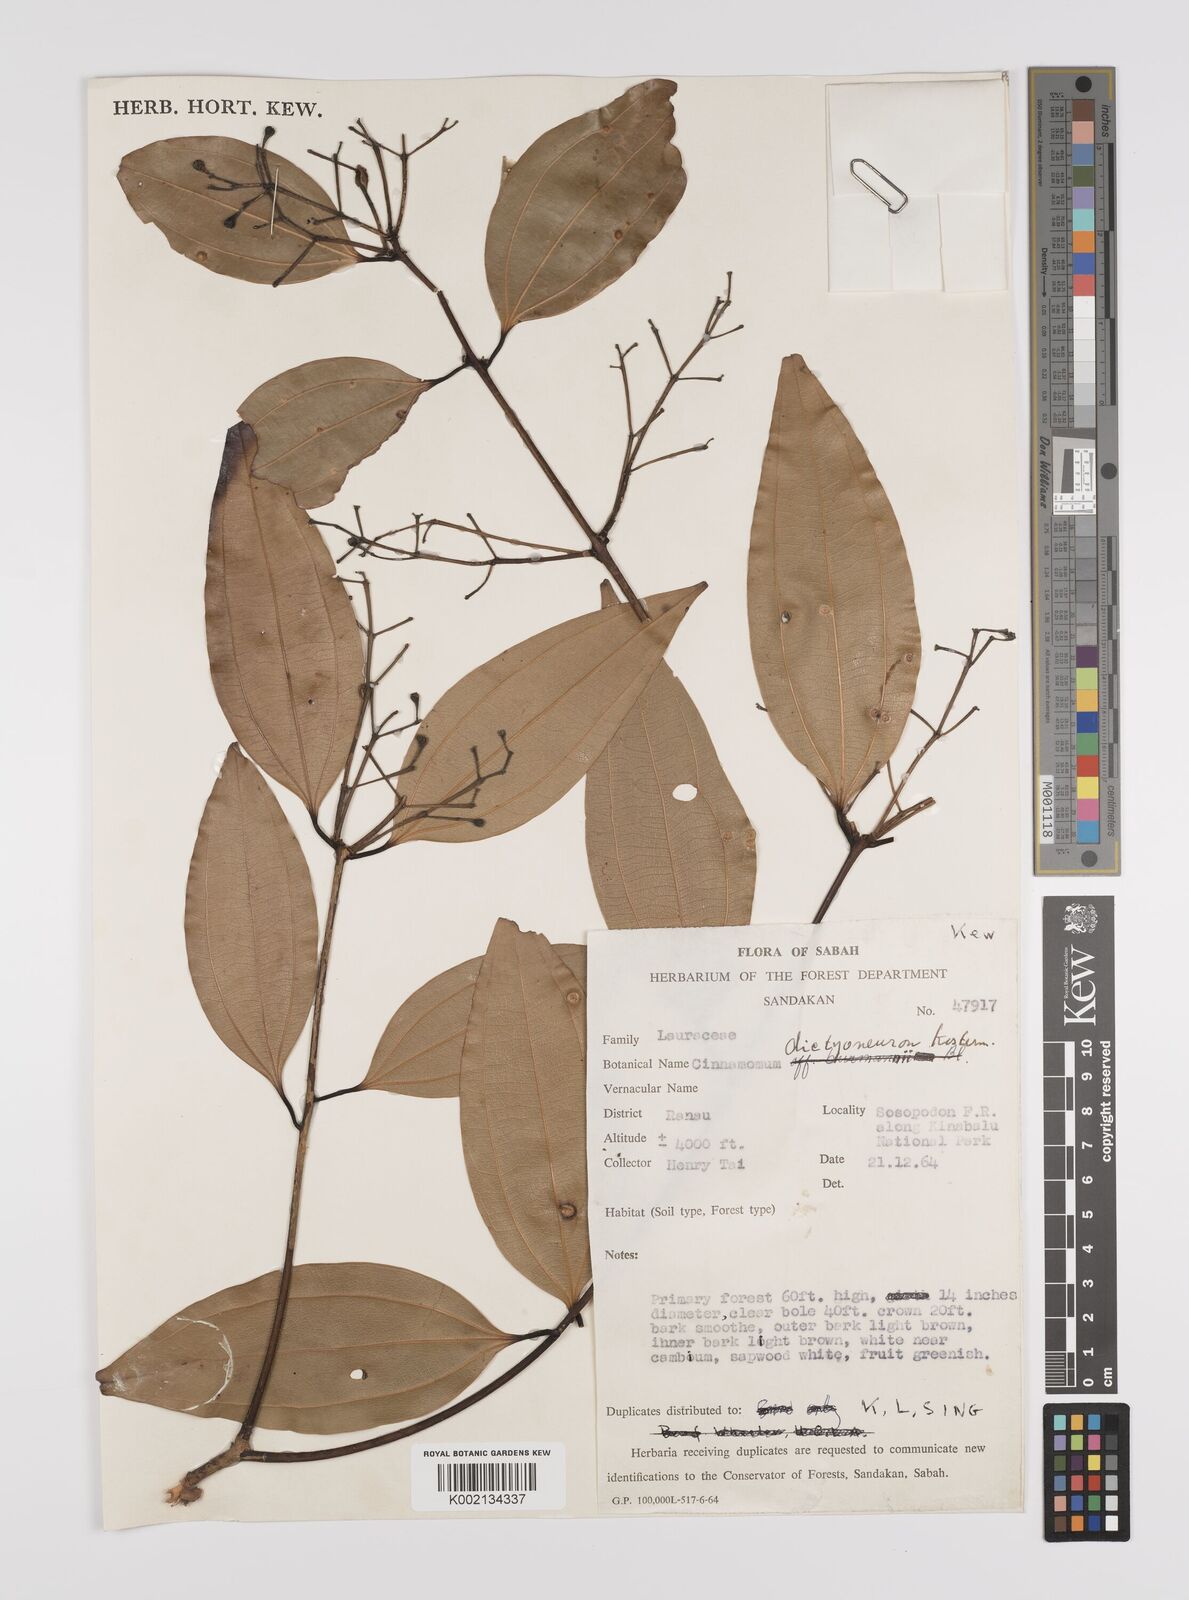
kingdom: Plantae
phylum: Tracheophyta
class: Magnoliopsida
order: Laurales
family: Lauraceae
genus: Cinnamomum
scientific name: Cinnamomum racemosum
